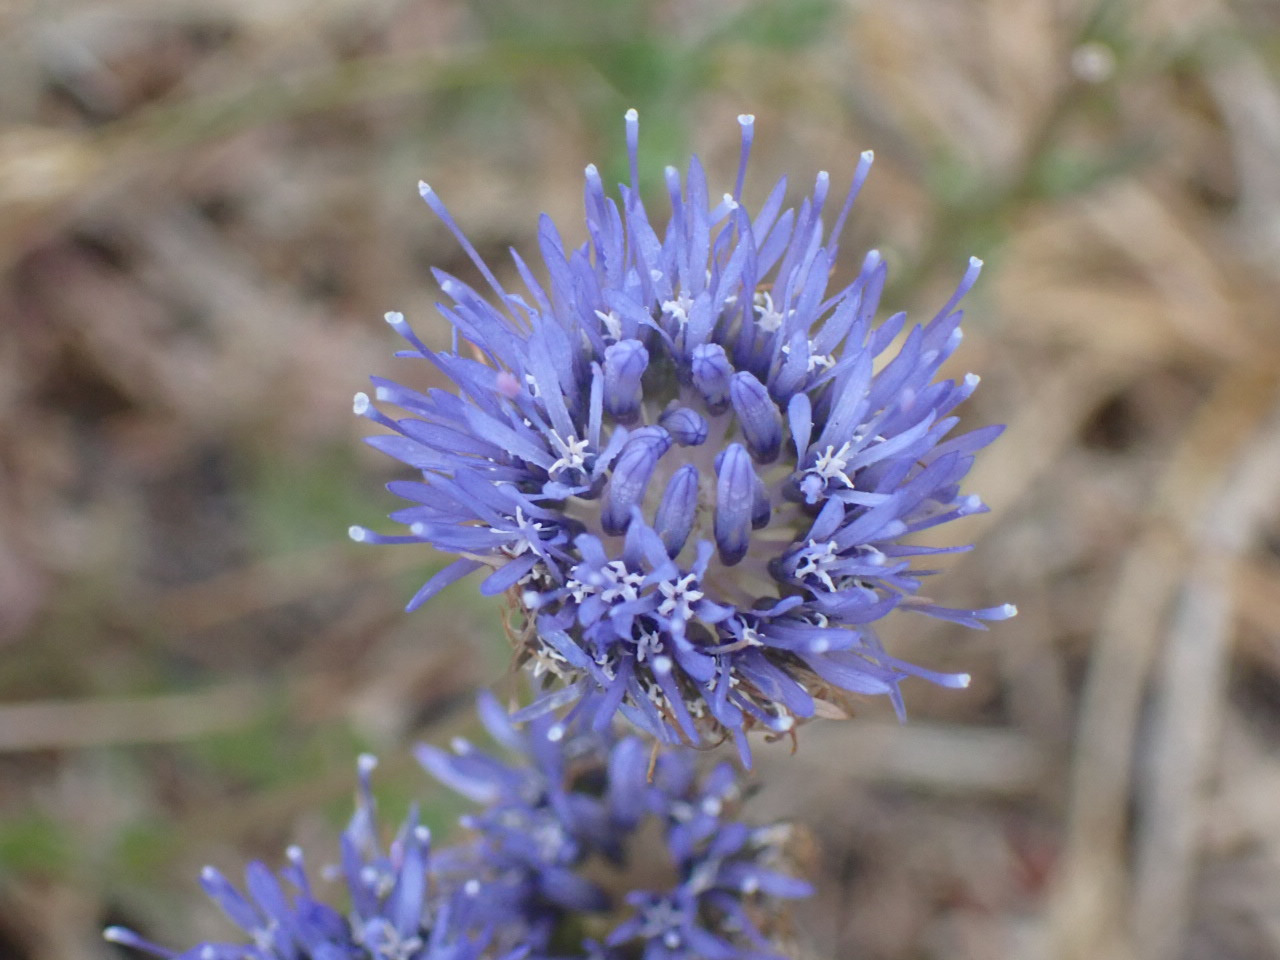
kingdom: Plantae
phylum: Tracheophyta
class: Magnoliopsida
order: Asterales
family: Campanulaceae
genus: Jasione
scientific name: Jasione montana
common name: Blåmunke
